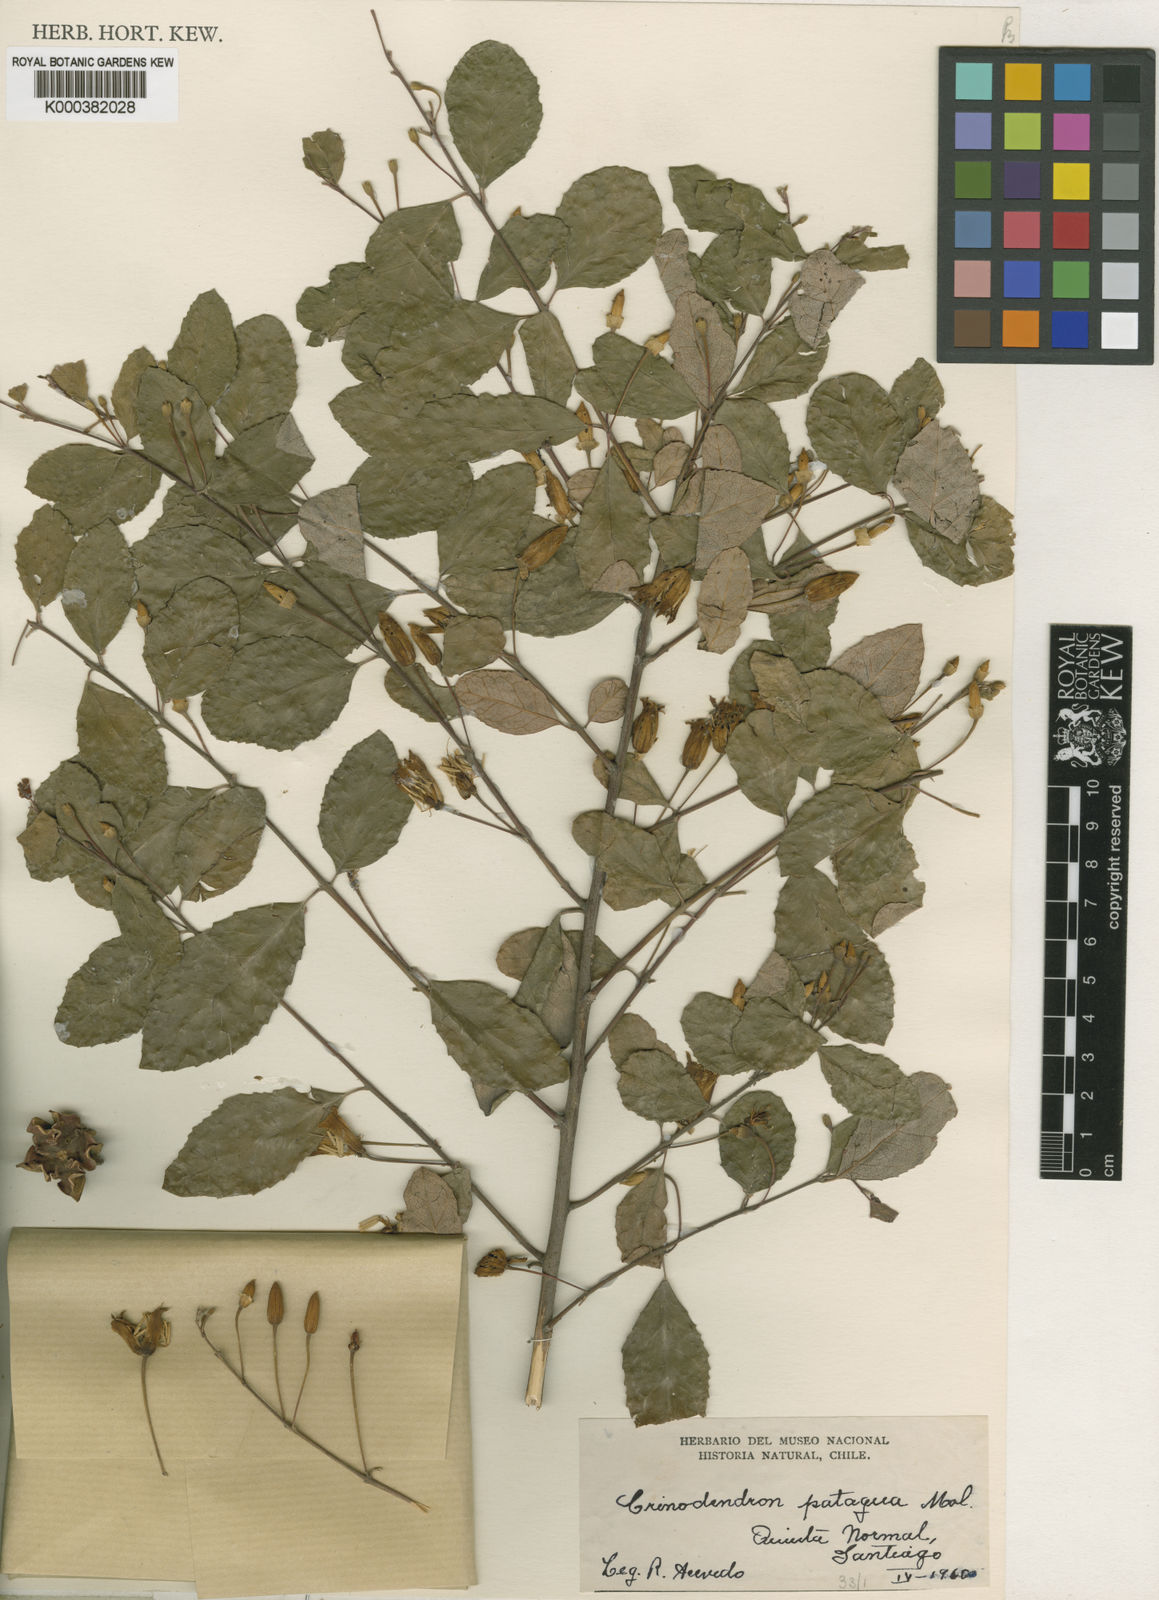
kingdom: Plantae
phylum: Tracheophyta
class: Magnoliopsida
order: Oxalidales
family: Elaeocarpaceae
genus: Crinodendron
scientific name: Crinodendron patagua
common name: Lily-of-the-valley-tree
